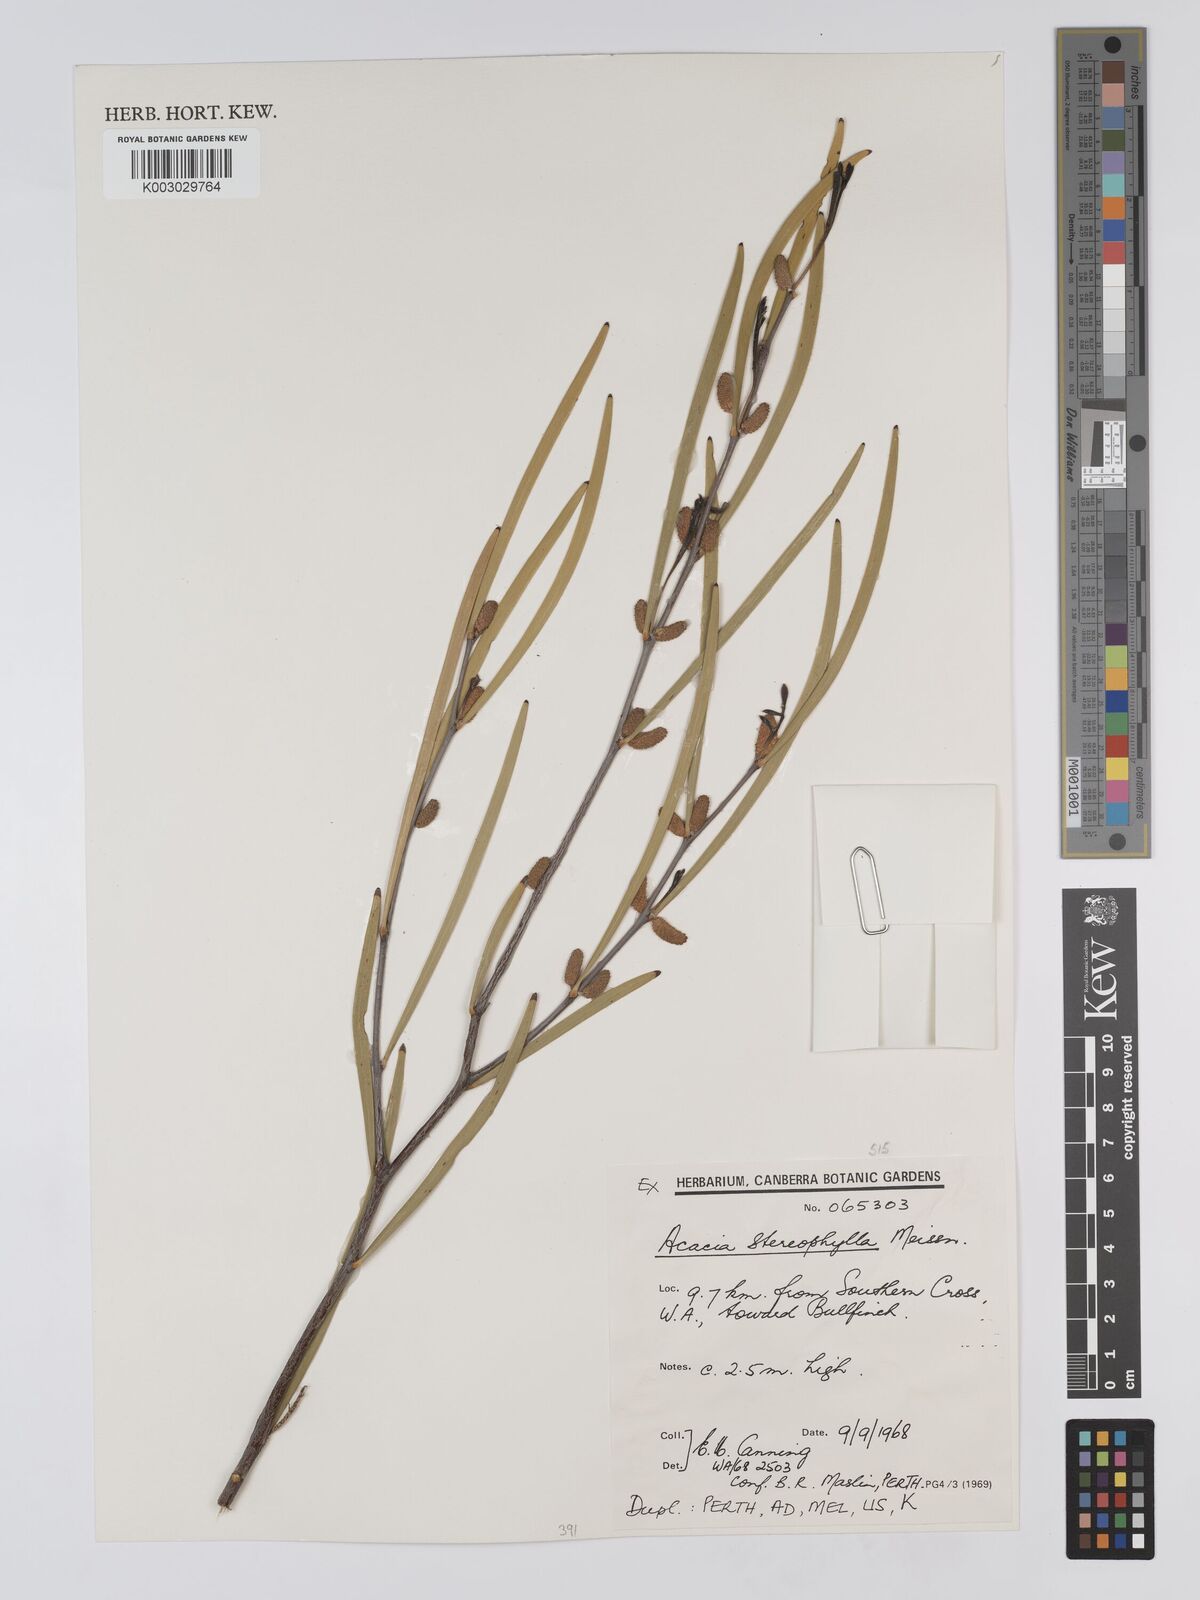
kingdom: Plantae
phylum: Tracheophyta
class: Magnoliopsida
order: Fabales
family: Fabaceae
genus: Acacia
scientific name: Acacia stereophylla
